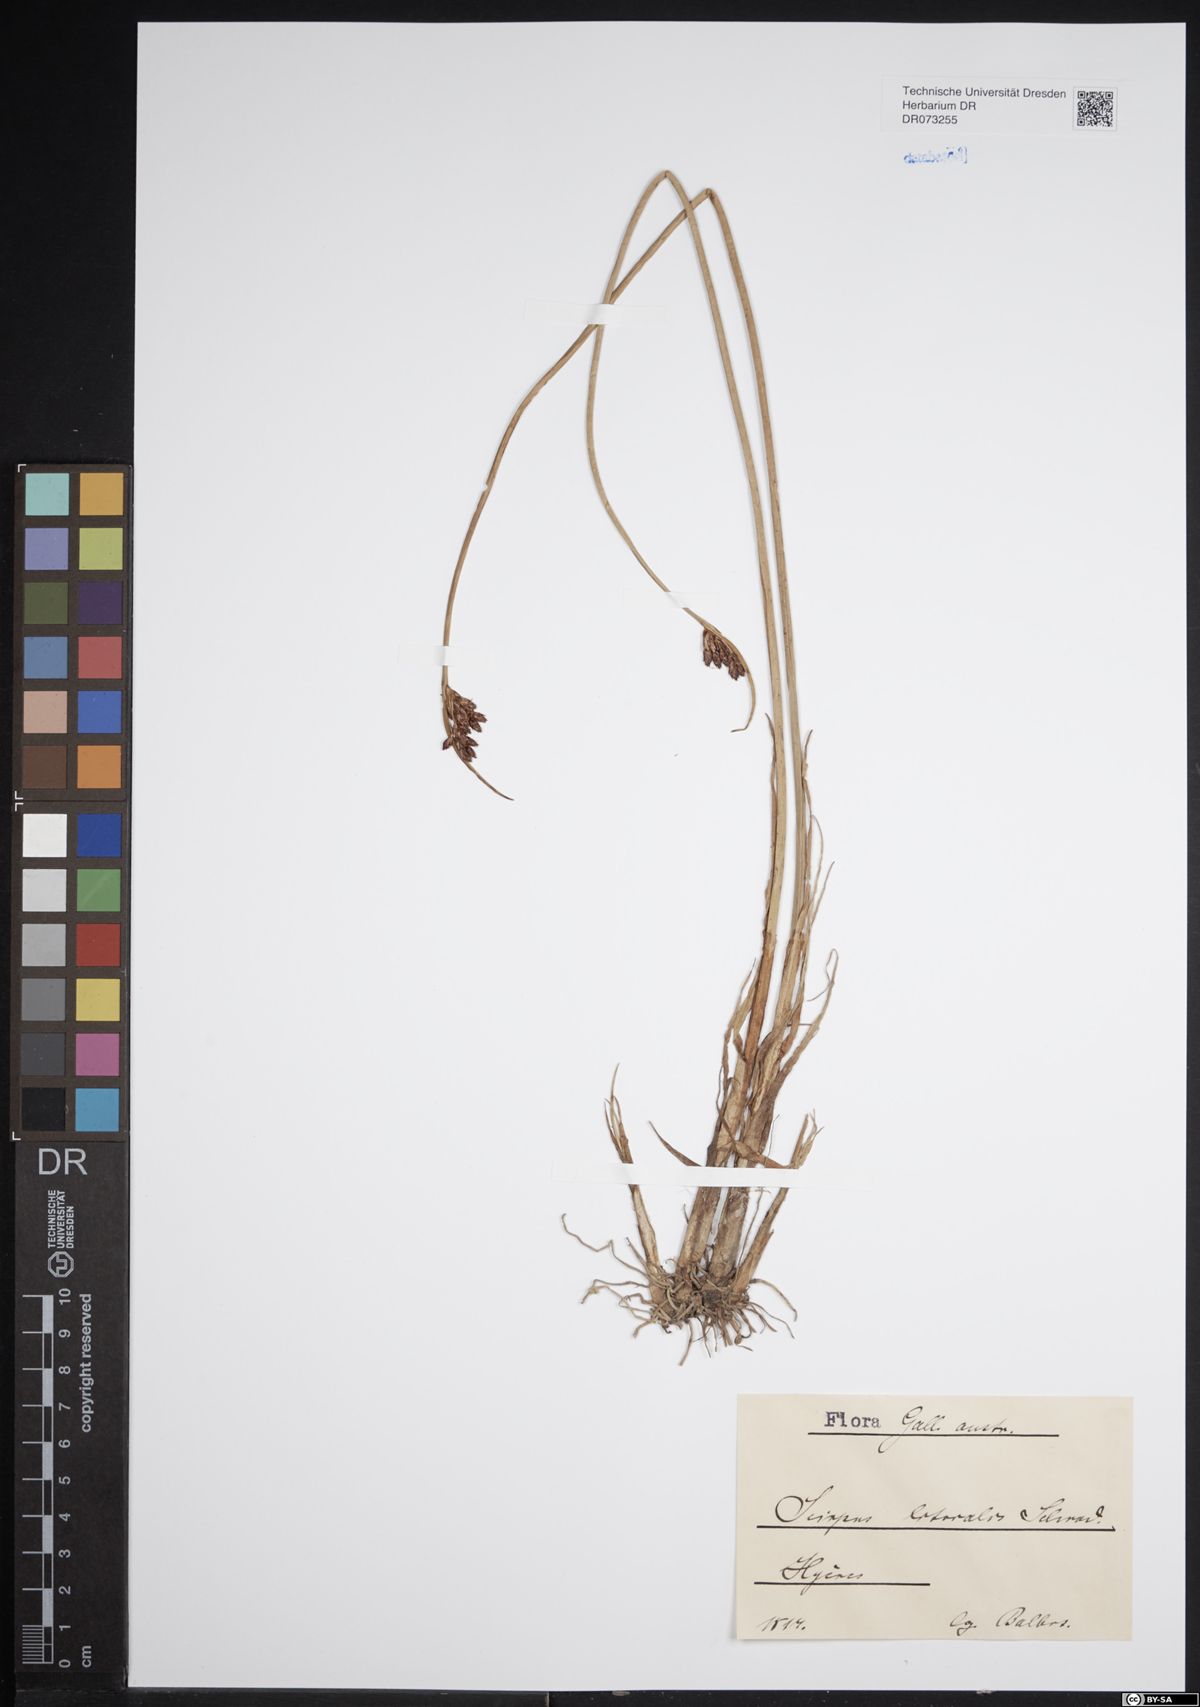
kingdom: Plantae
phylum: Tracheophyta
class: Liliopsida
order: Poales
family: Cyperaceae
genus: Scirpus
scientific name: Scirpus
